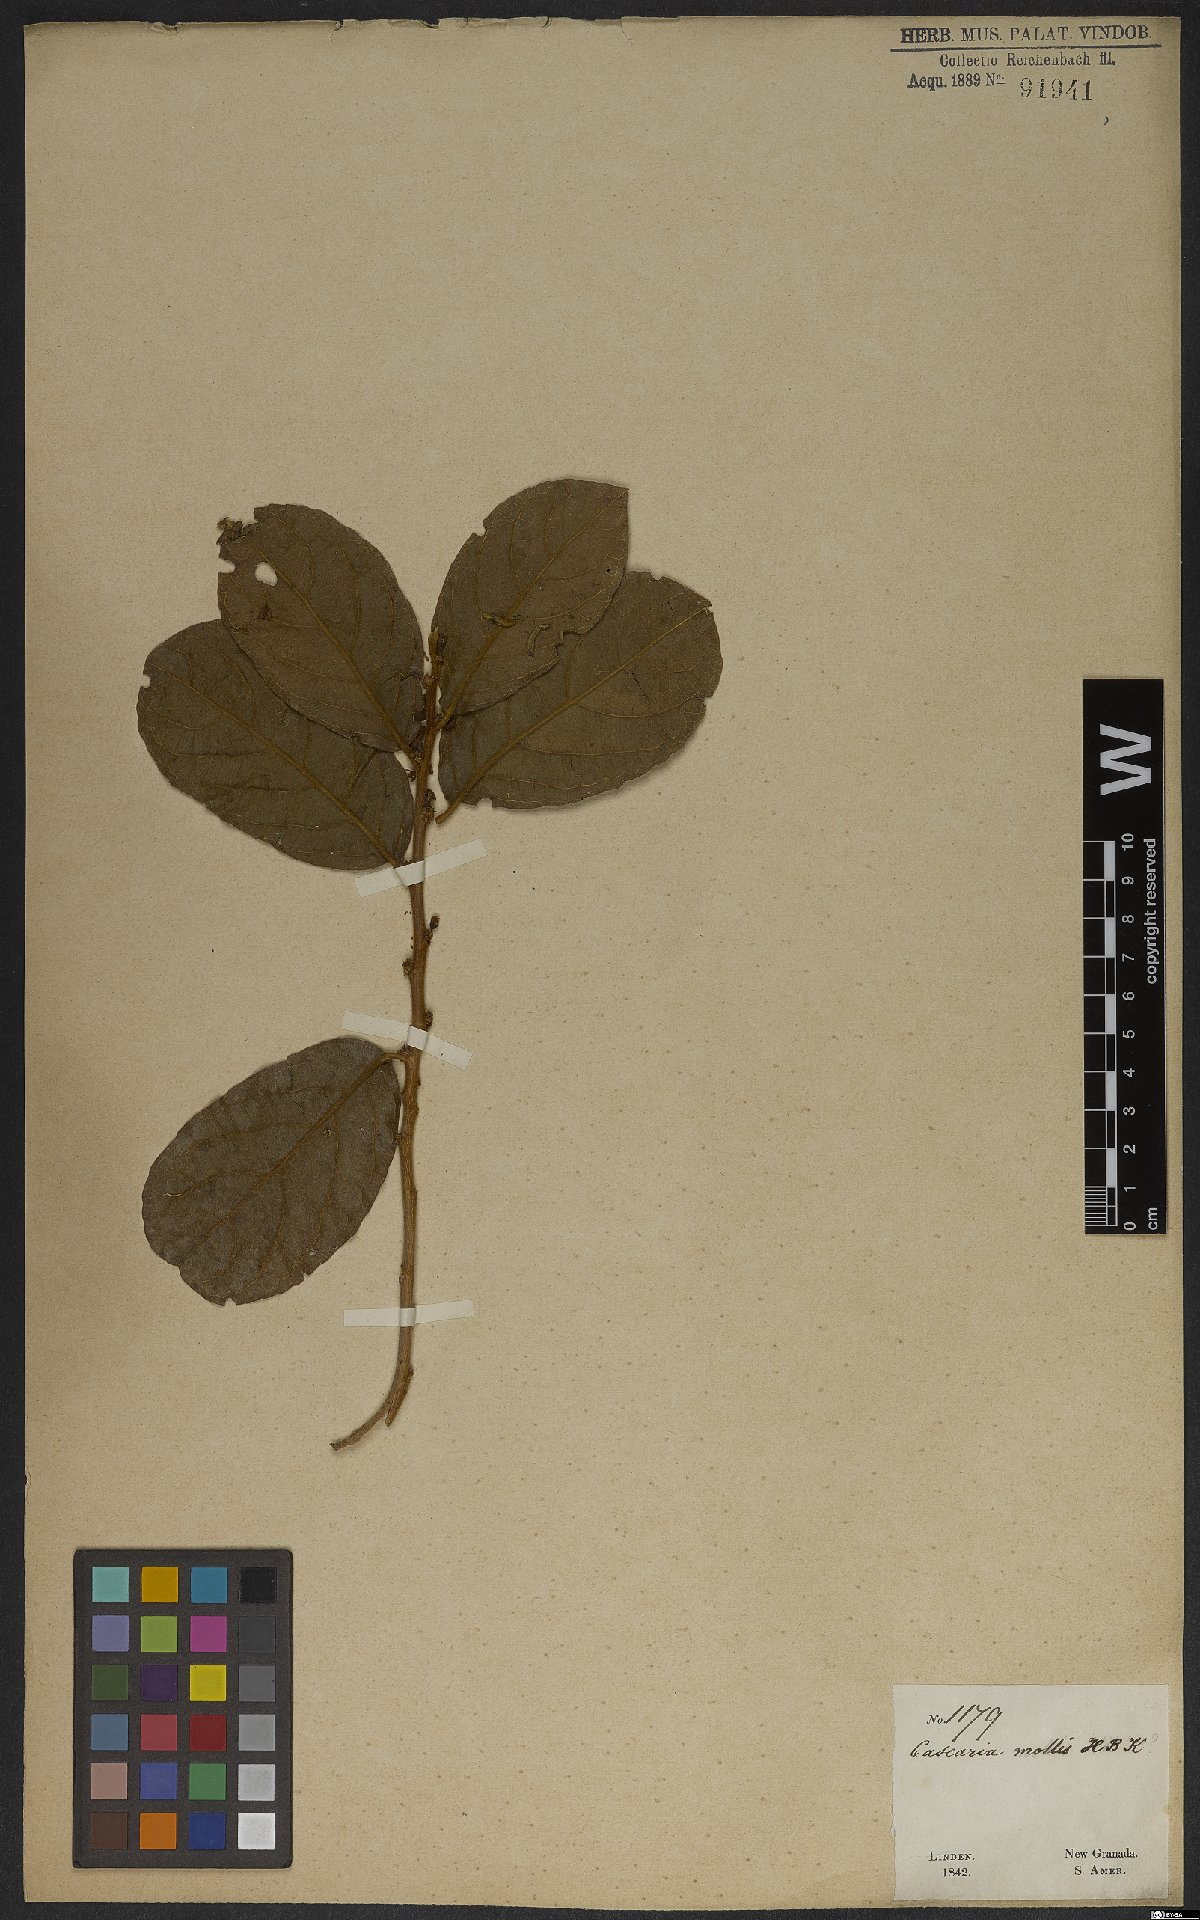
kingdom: Plantae
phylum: Tracheophyta
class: Magnoliopsida
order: Malpighiales
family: Salicaceae
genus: Casearia
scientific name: Casearia hirsuta
